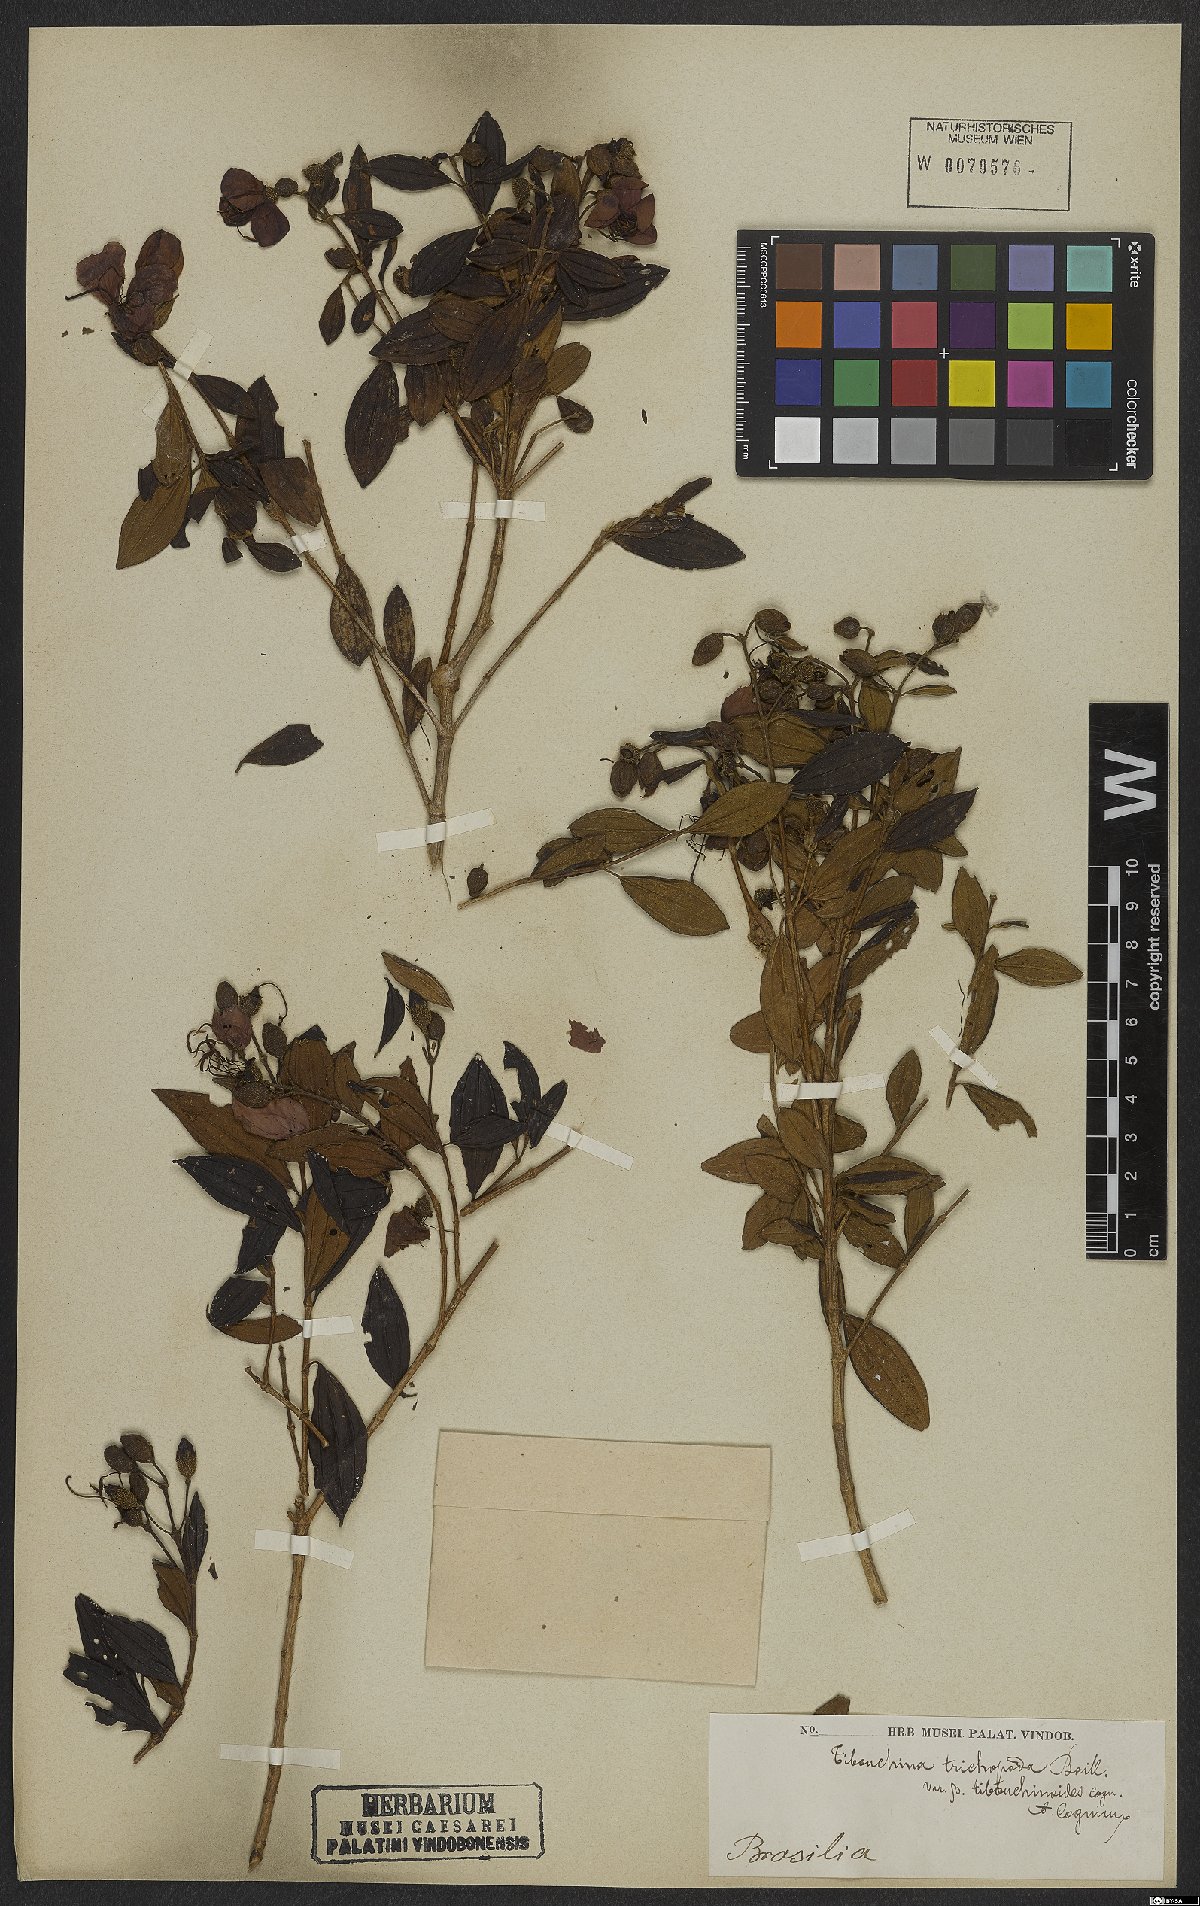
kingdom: Plantae
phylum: Tracheophyta
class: Magnoliopsida
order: Myrtales
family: Melastomataceae
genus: Pleroma
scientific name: Pleroma trichopodum
